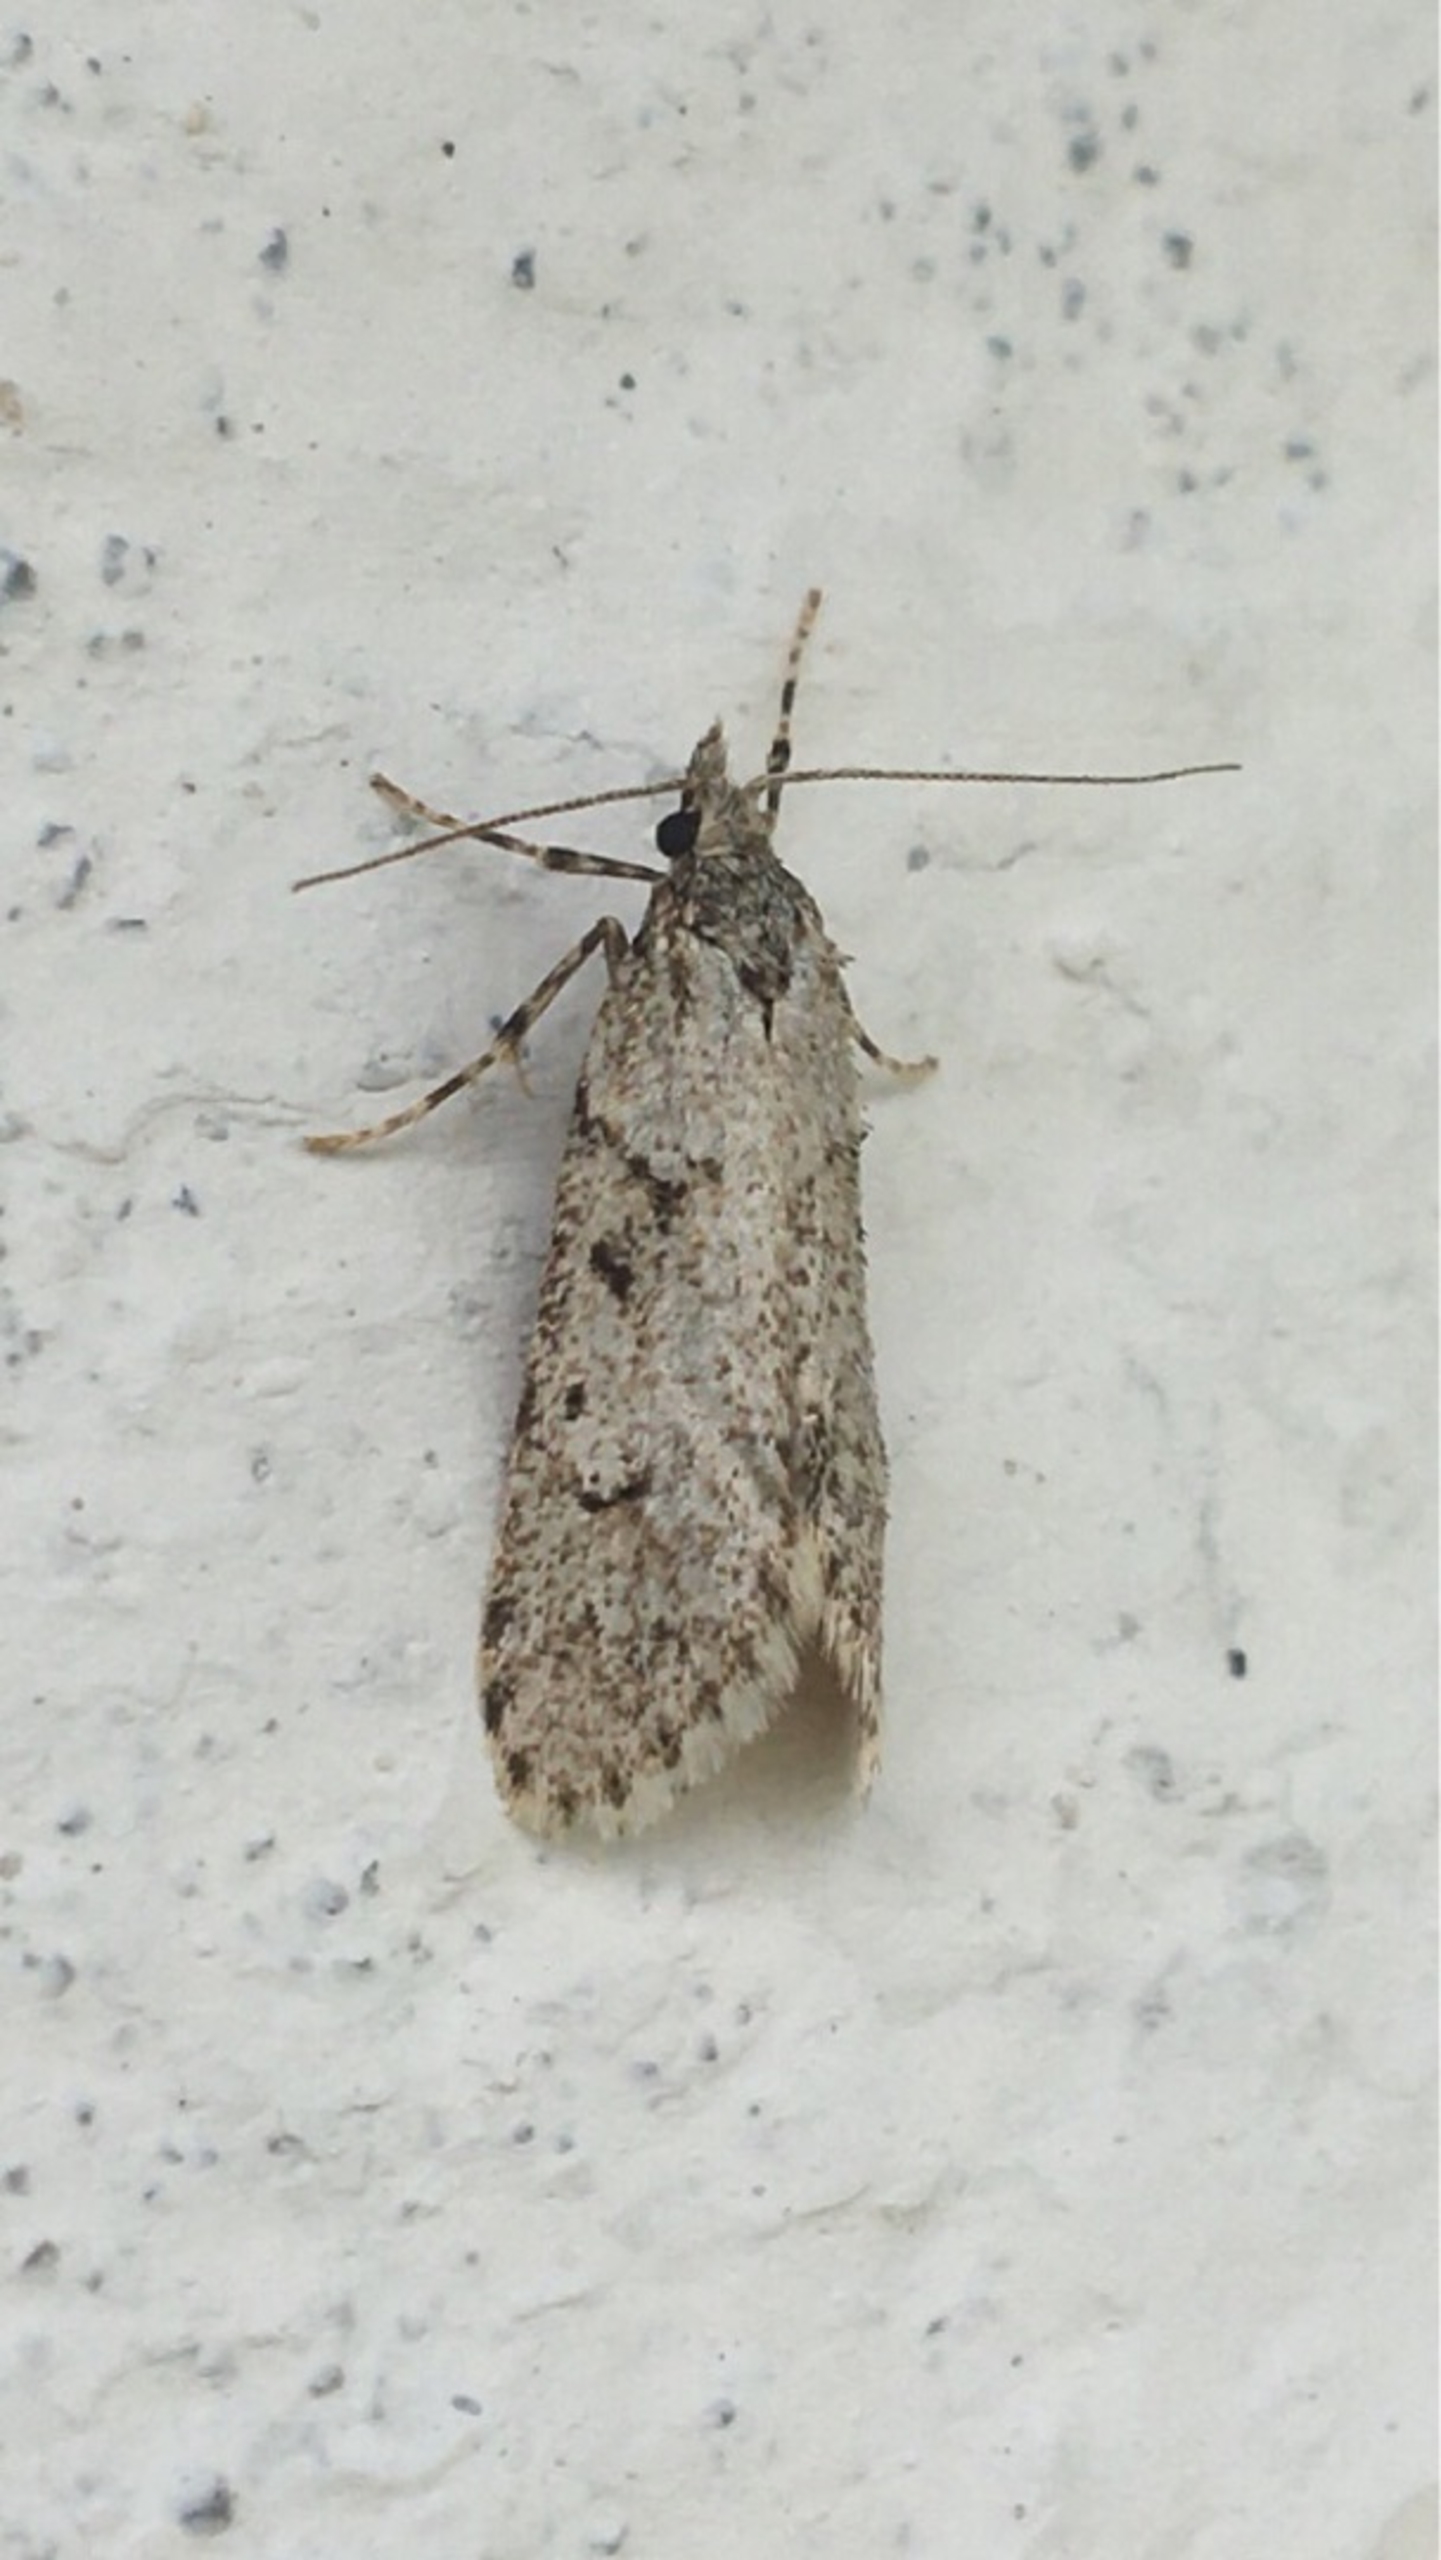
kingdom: Animalia
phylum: Arthropoda
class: Insecta
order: Lepidoptera
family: Lypusidae
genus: Diurnea
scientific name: Diurnea fagella
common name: Bøgeprydvinge
